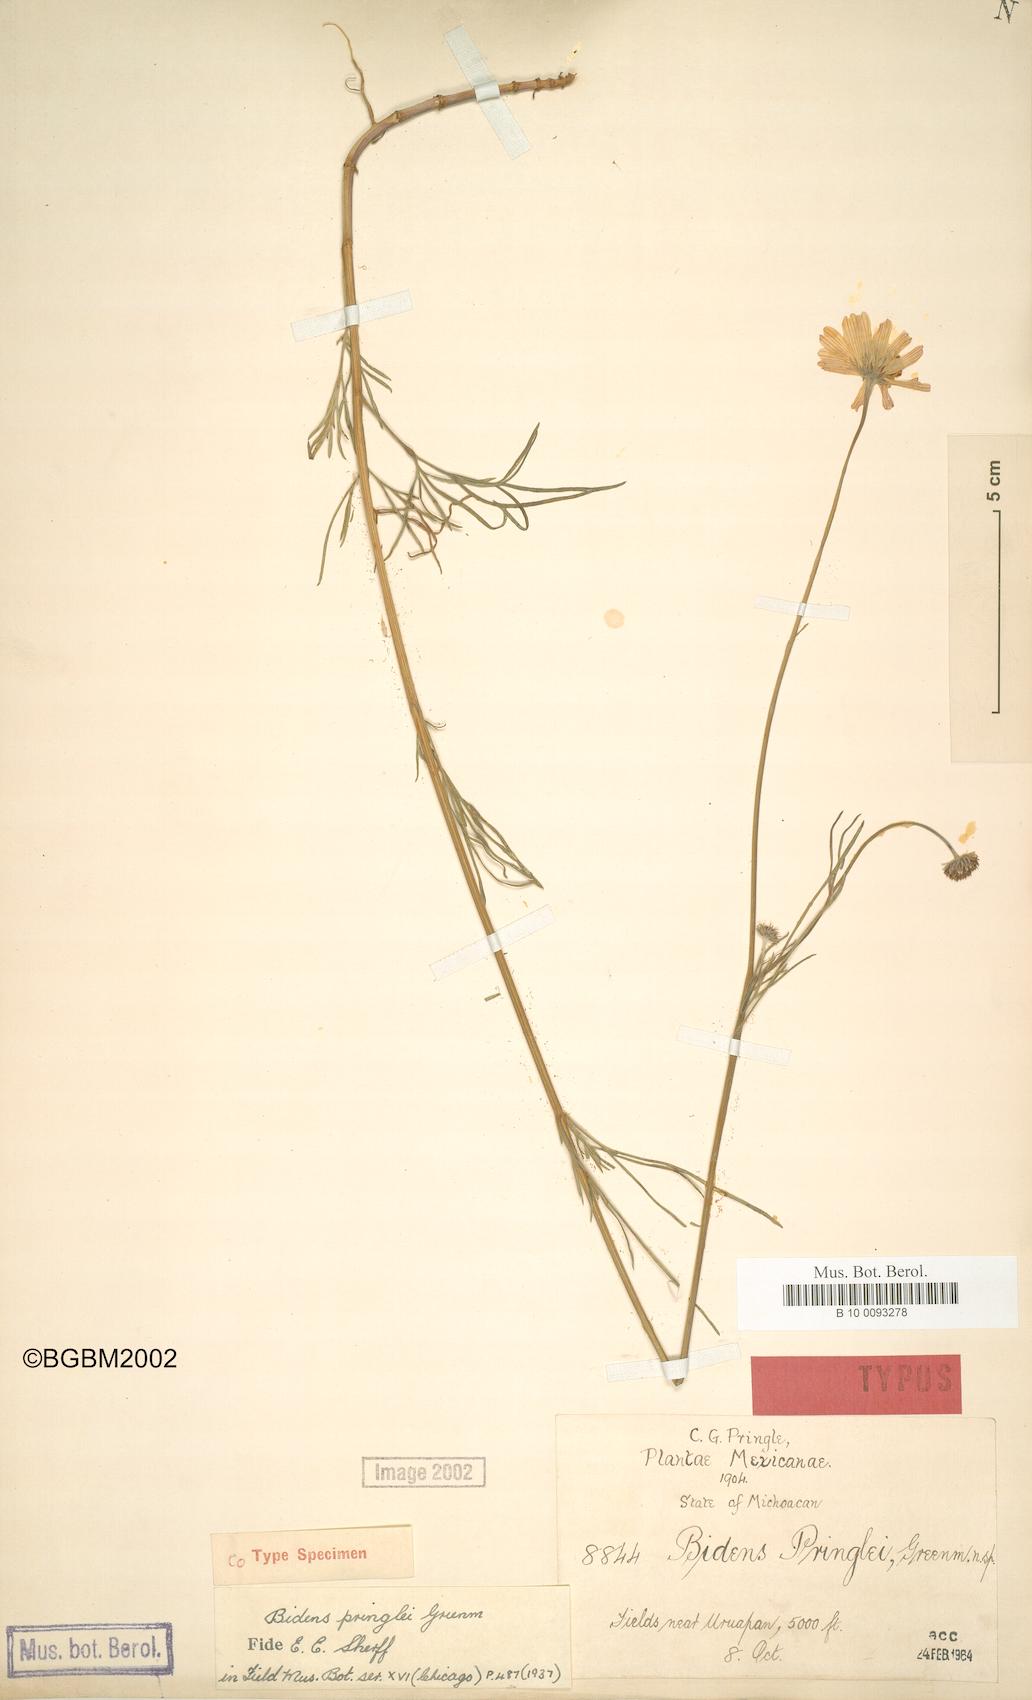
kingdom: Plantae
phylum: Tracheophyta
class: Magnoliopsida
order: Asterales
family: Asteraceae
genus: Bidens
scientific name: Bidens pringlei
